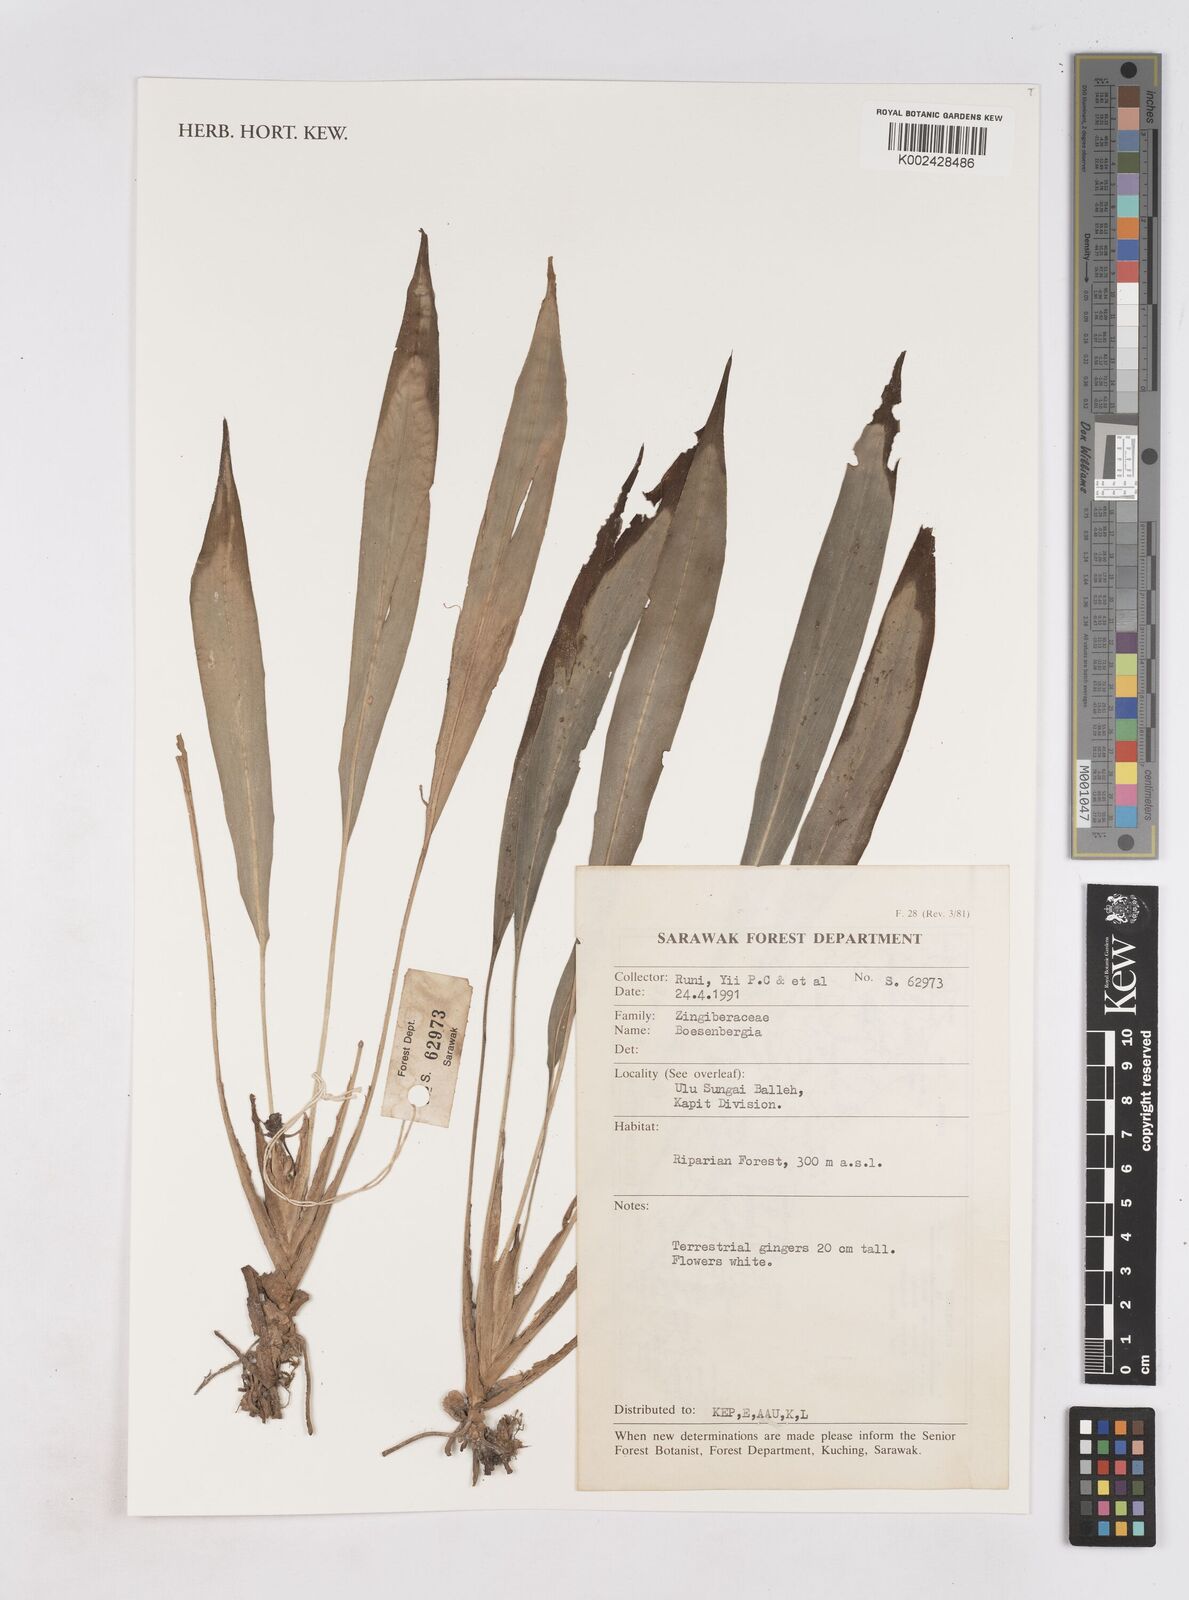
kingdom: Plantae
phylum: Tracheophyta
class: Liliopsida
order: Zingiberales
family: Zingiberaceae
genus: Boesenbergia
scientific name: Boesenbergia
